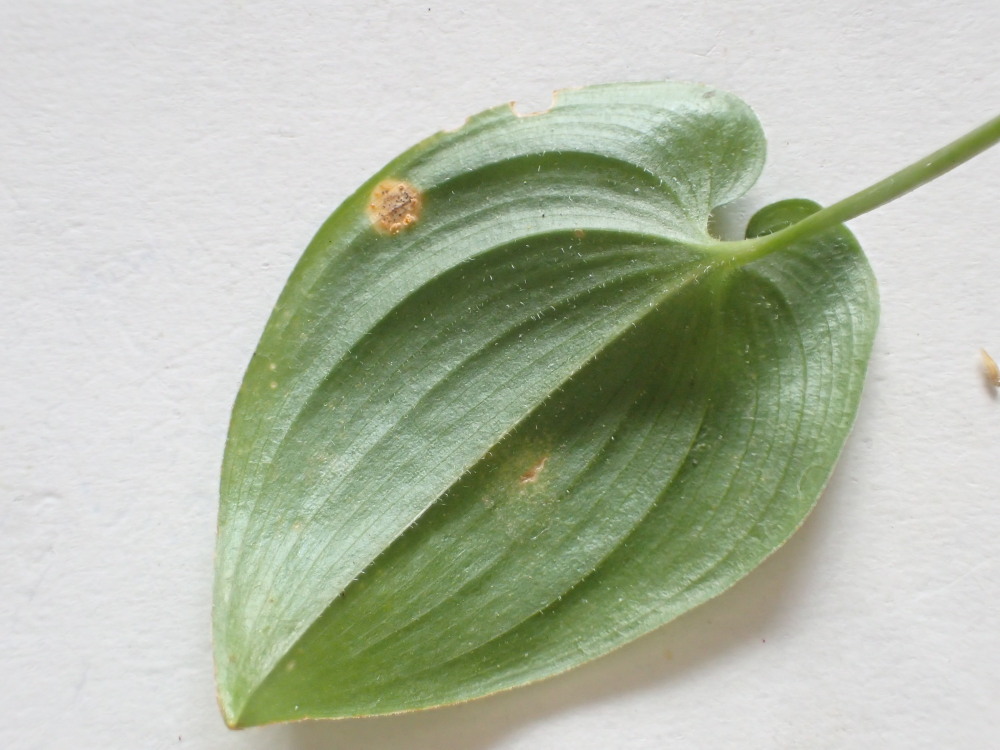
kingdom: Fungi
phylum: Basidiomycota
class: Pucciniomycetes
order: Pucciniales
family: Pucciniaceae
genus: Puccinia
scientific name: Puccinia sessilis
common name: Arum rust
